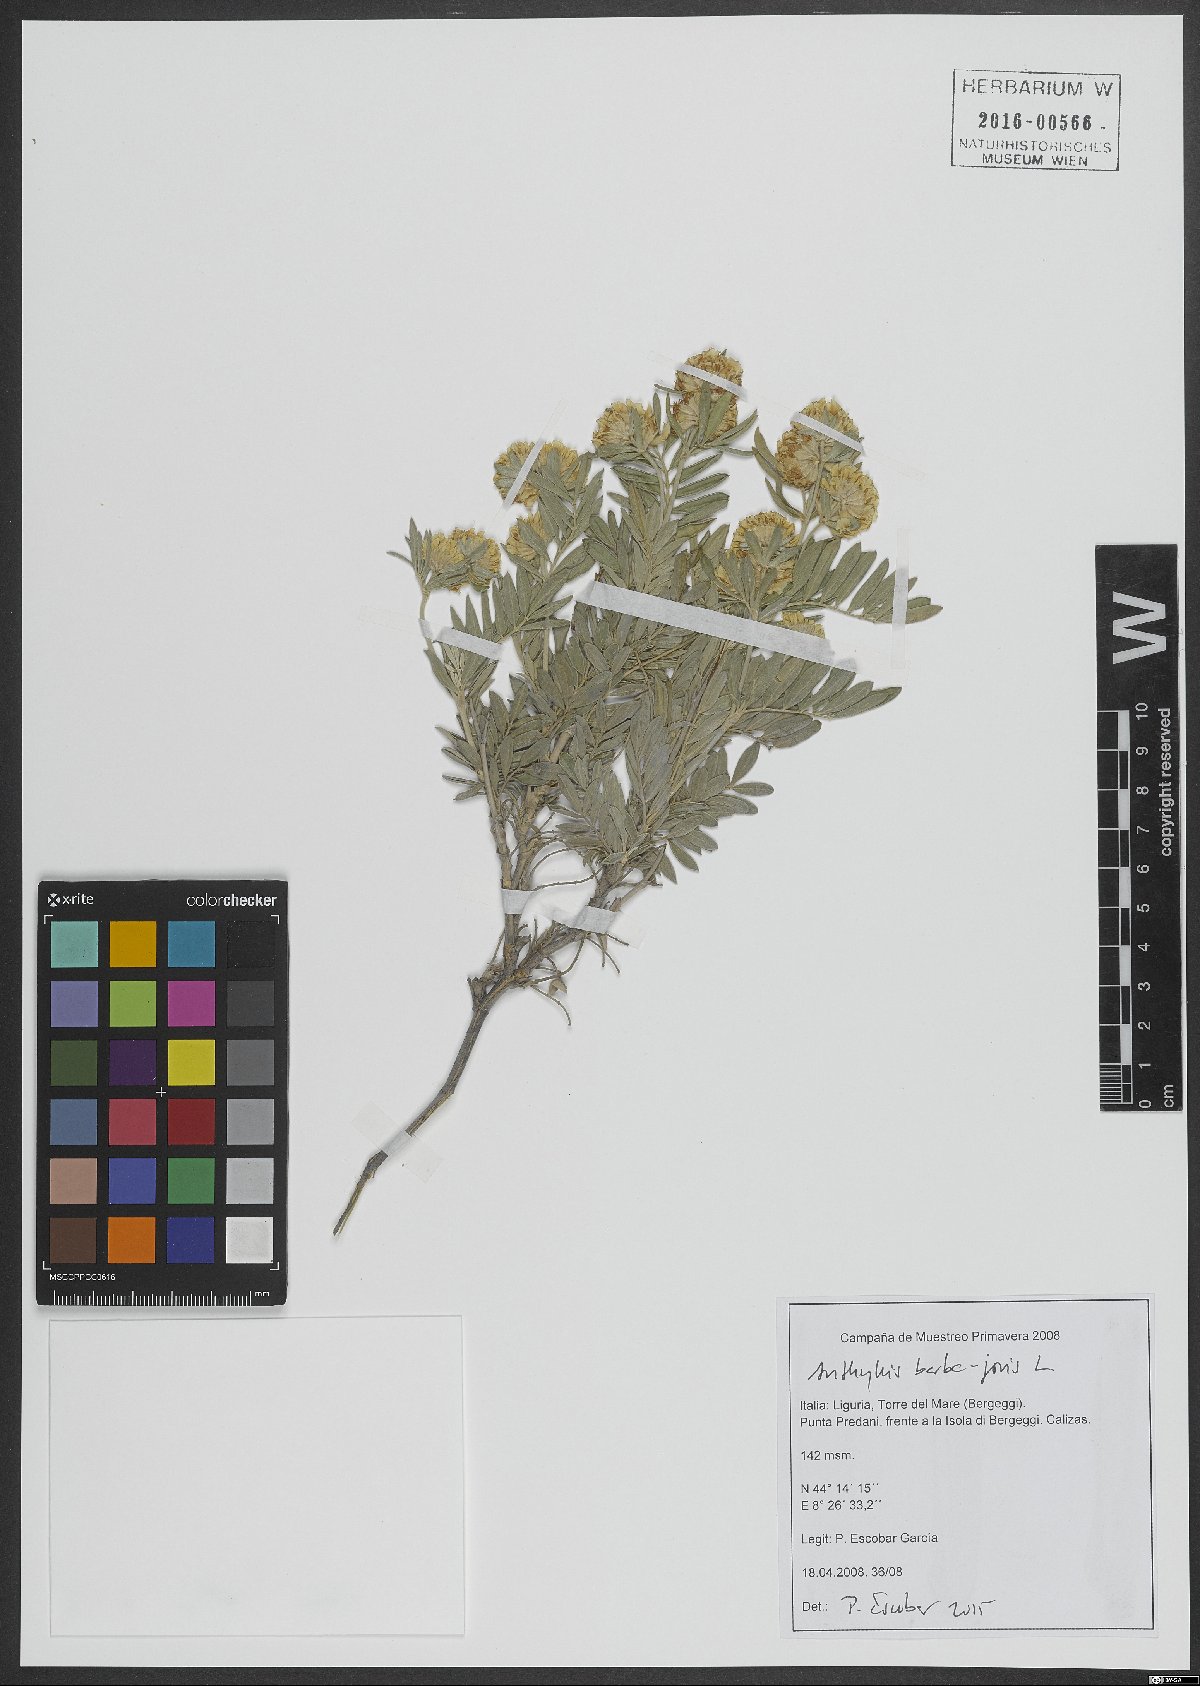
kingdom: Plantae
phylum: Tracheophyta
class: Magnoliopsida
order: Fabales
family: Fabaceae
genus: Anthyllis
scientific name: Anthyllis barba-jovis
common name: Jupiter's-beard
